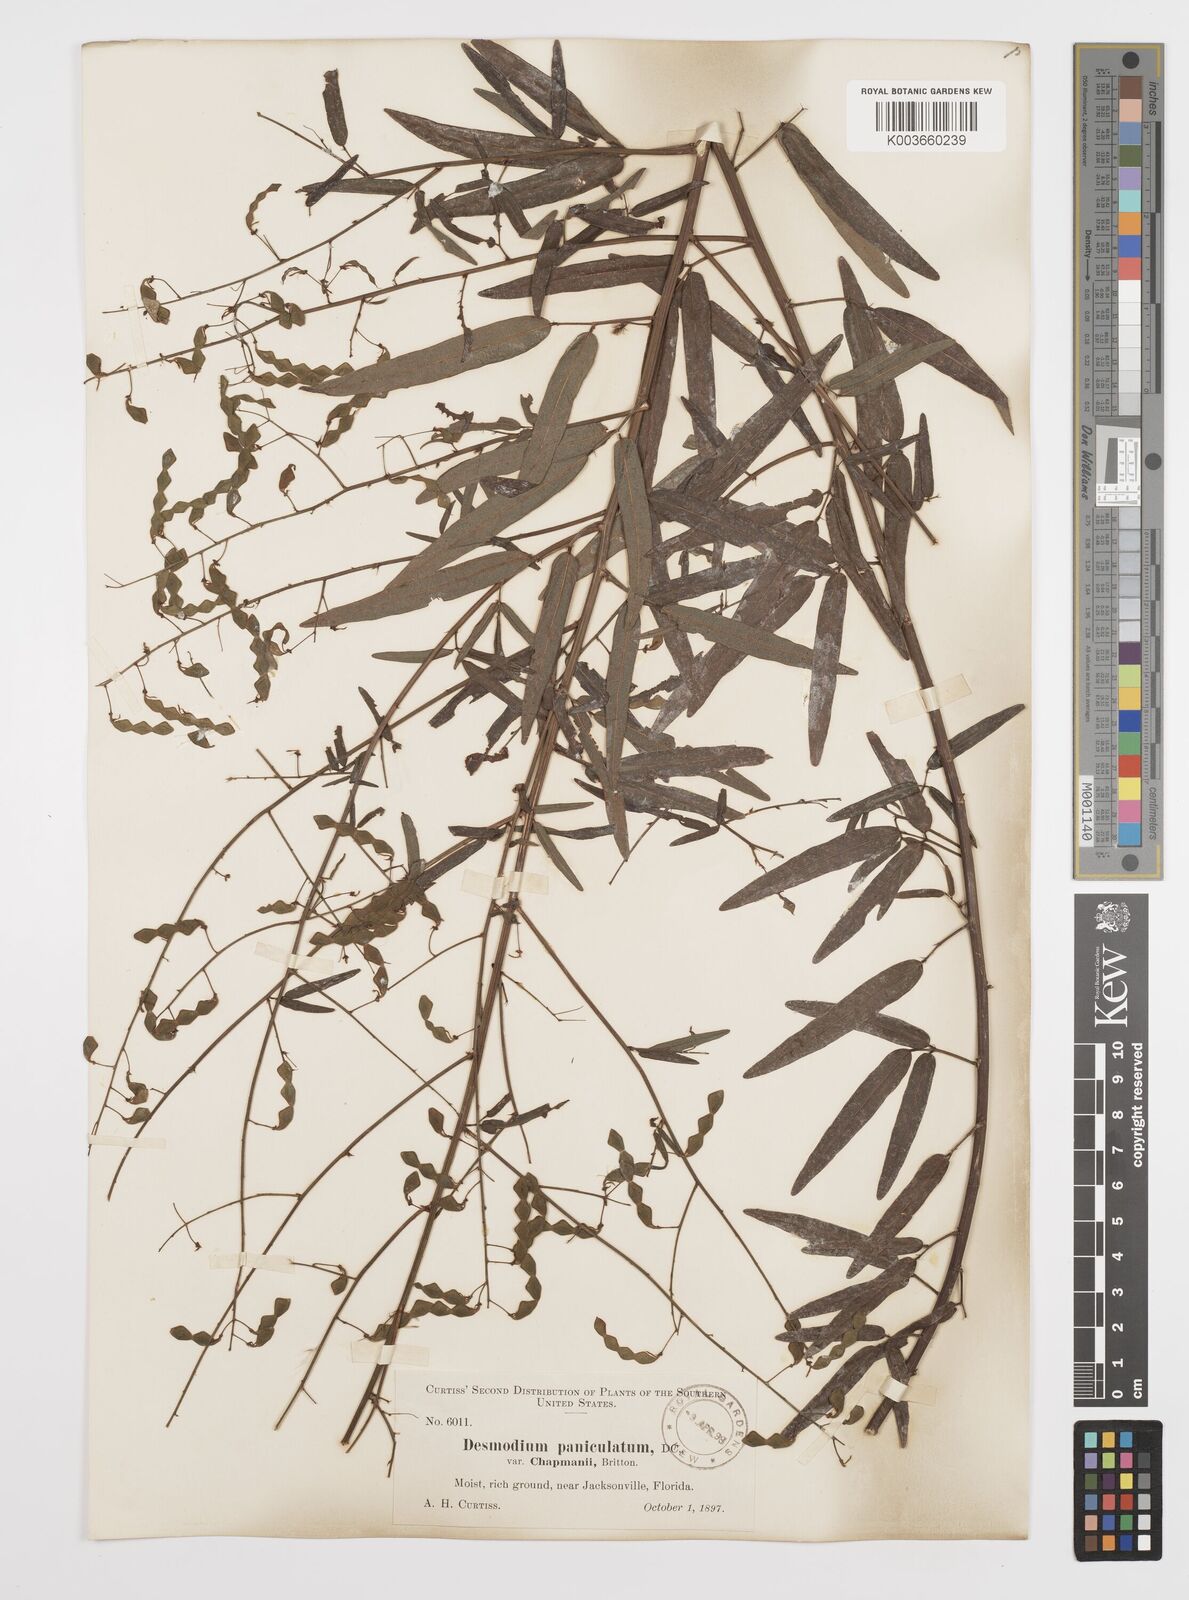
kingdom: Plantae
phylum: Tracheophyta
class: Magnoliopsida
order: Fabales
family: Fabaceae
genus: Desmodium
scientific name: Desmodium paniculatum
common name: Panicled tick-clover
